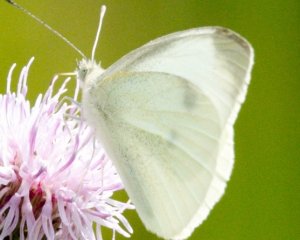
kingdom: Animalia
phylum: Arthropoda
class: Insecta
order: Lepidoptera
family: Pieridae
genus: Pieris
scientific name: Pieris rapae
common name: Cabbage White
